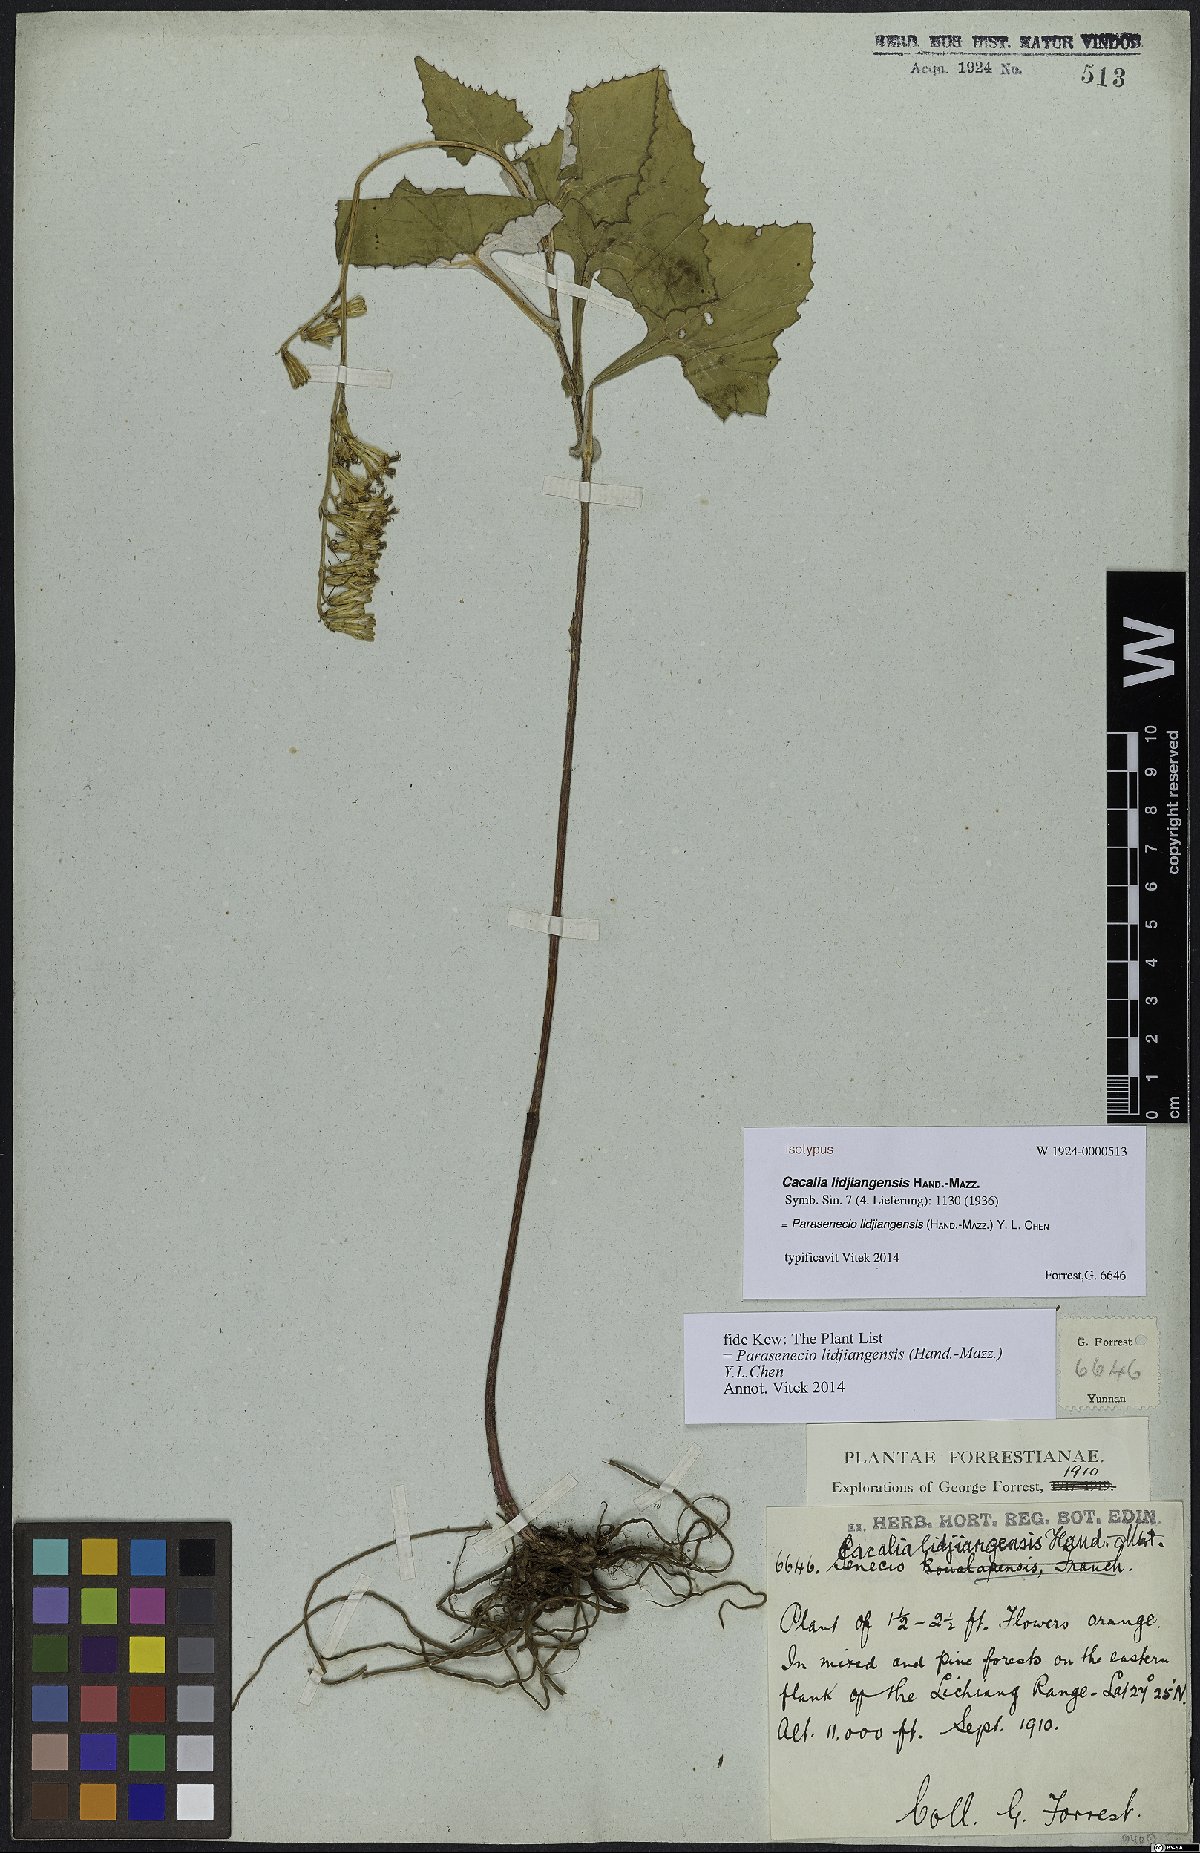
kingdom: Plantae
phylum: Tracheophyta
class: Magnoliopsida
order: Asterales
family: Asteraceae
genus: Parasenecio
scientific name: Parasenecio lidjiangensis
